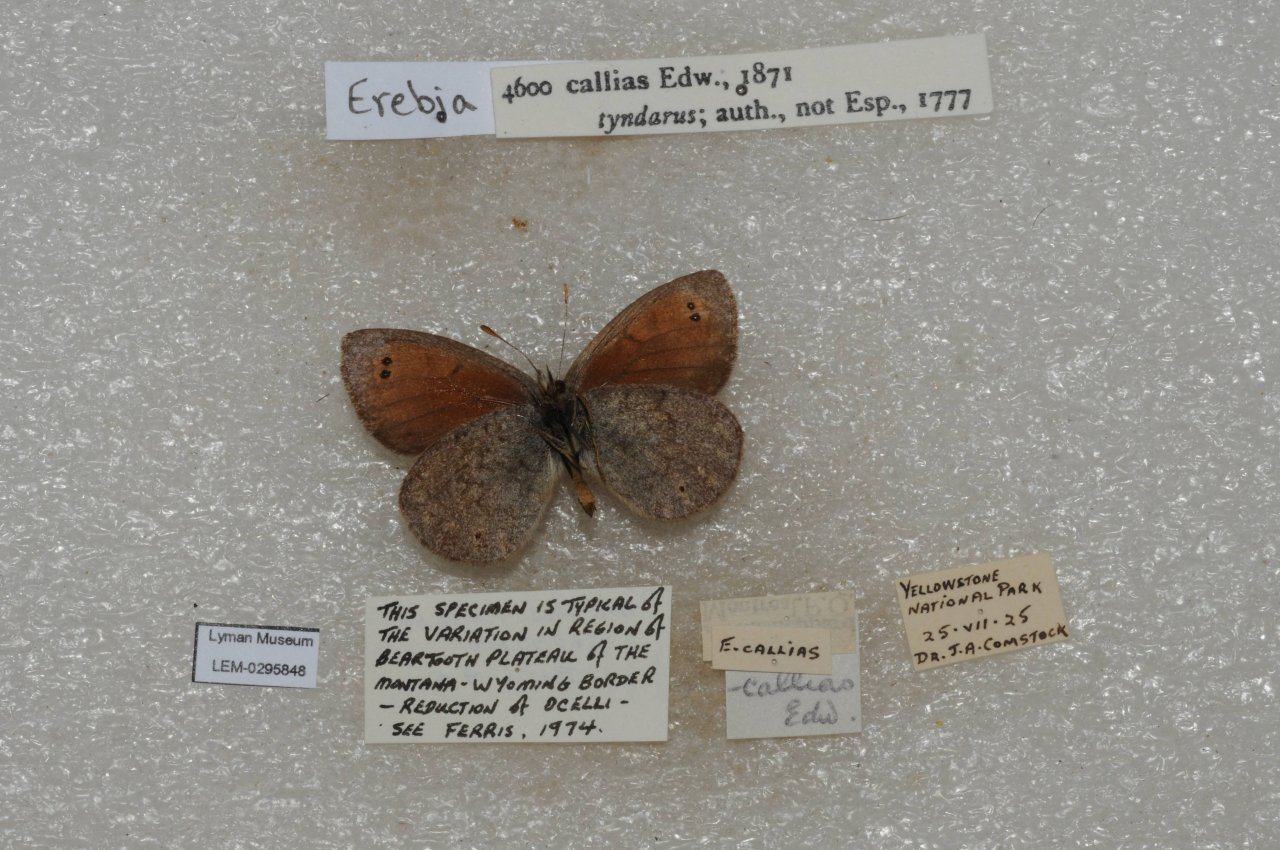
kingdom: Animalia
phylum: Arthropoda
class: Insecta
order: Lepidoptera
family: Nymphalidae
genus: Erebia
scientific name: Erebia tyndarus
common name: Colorado Alpine
